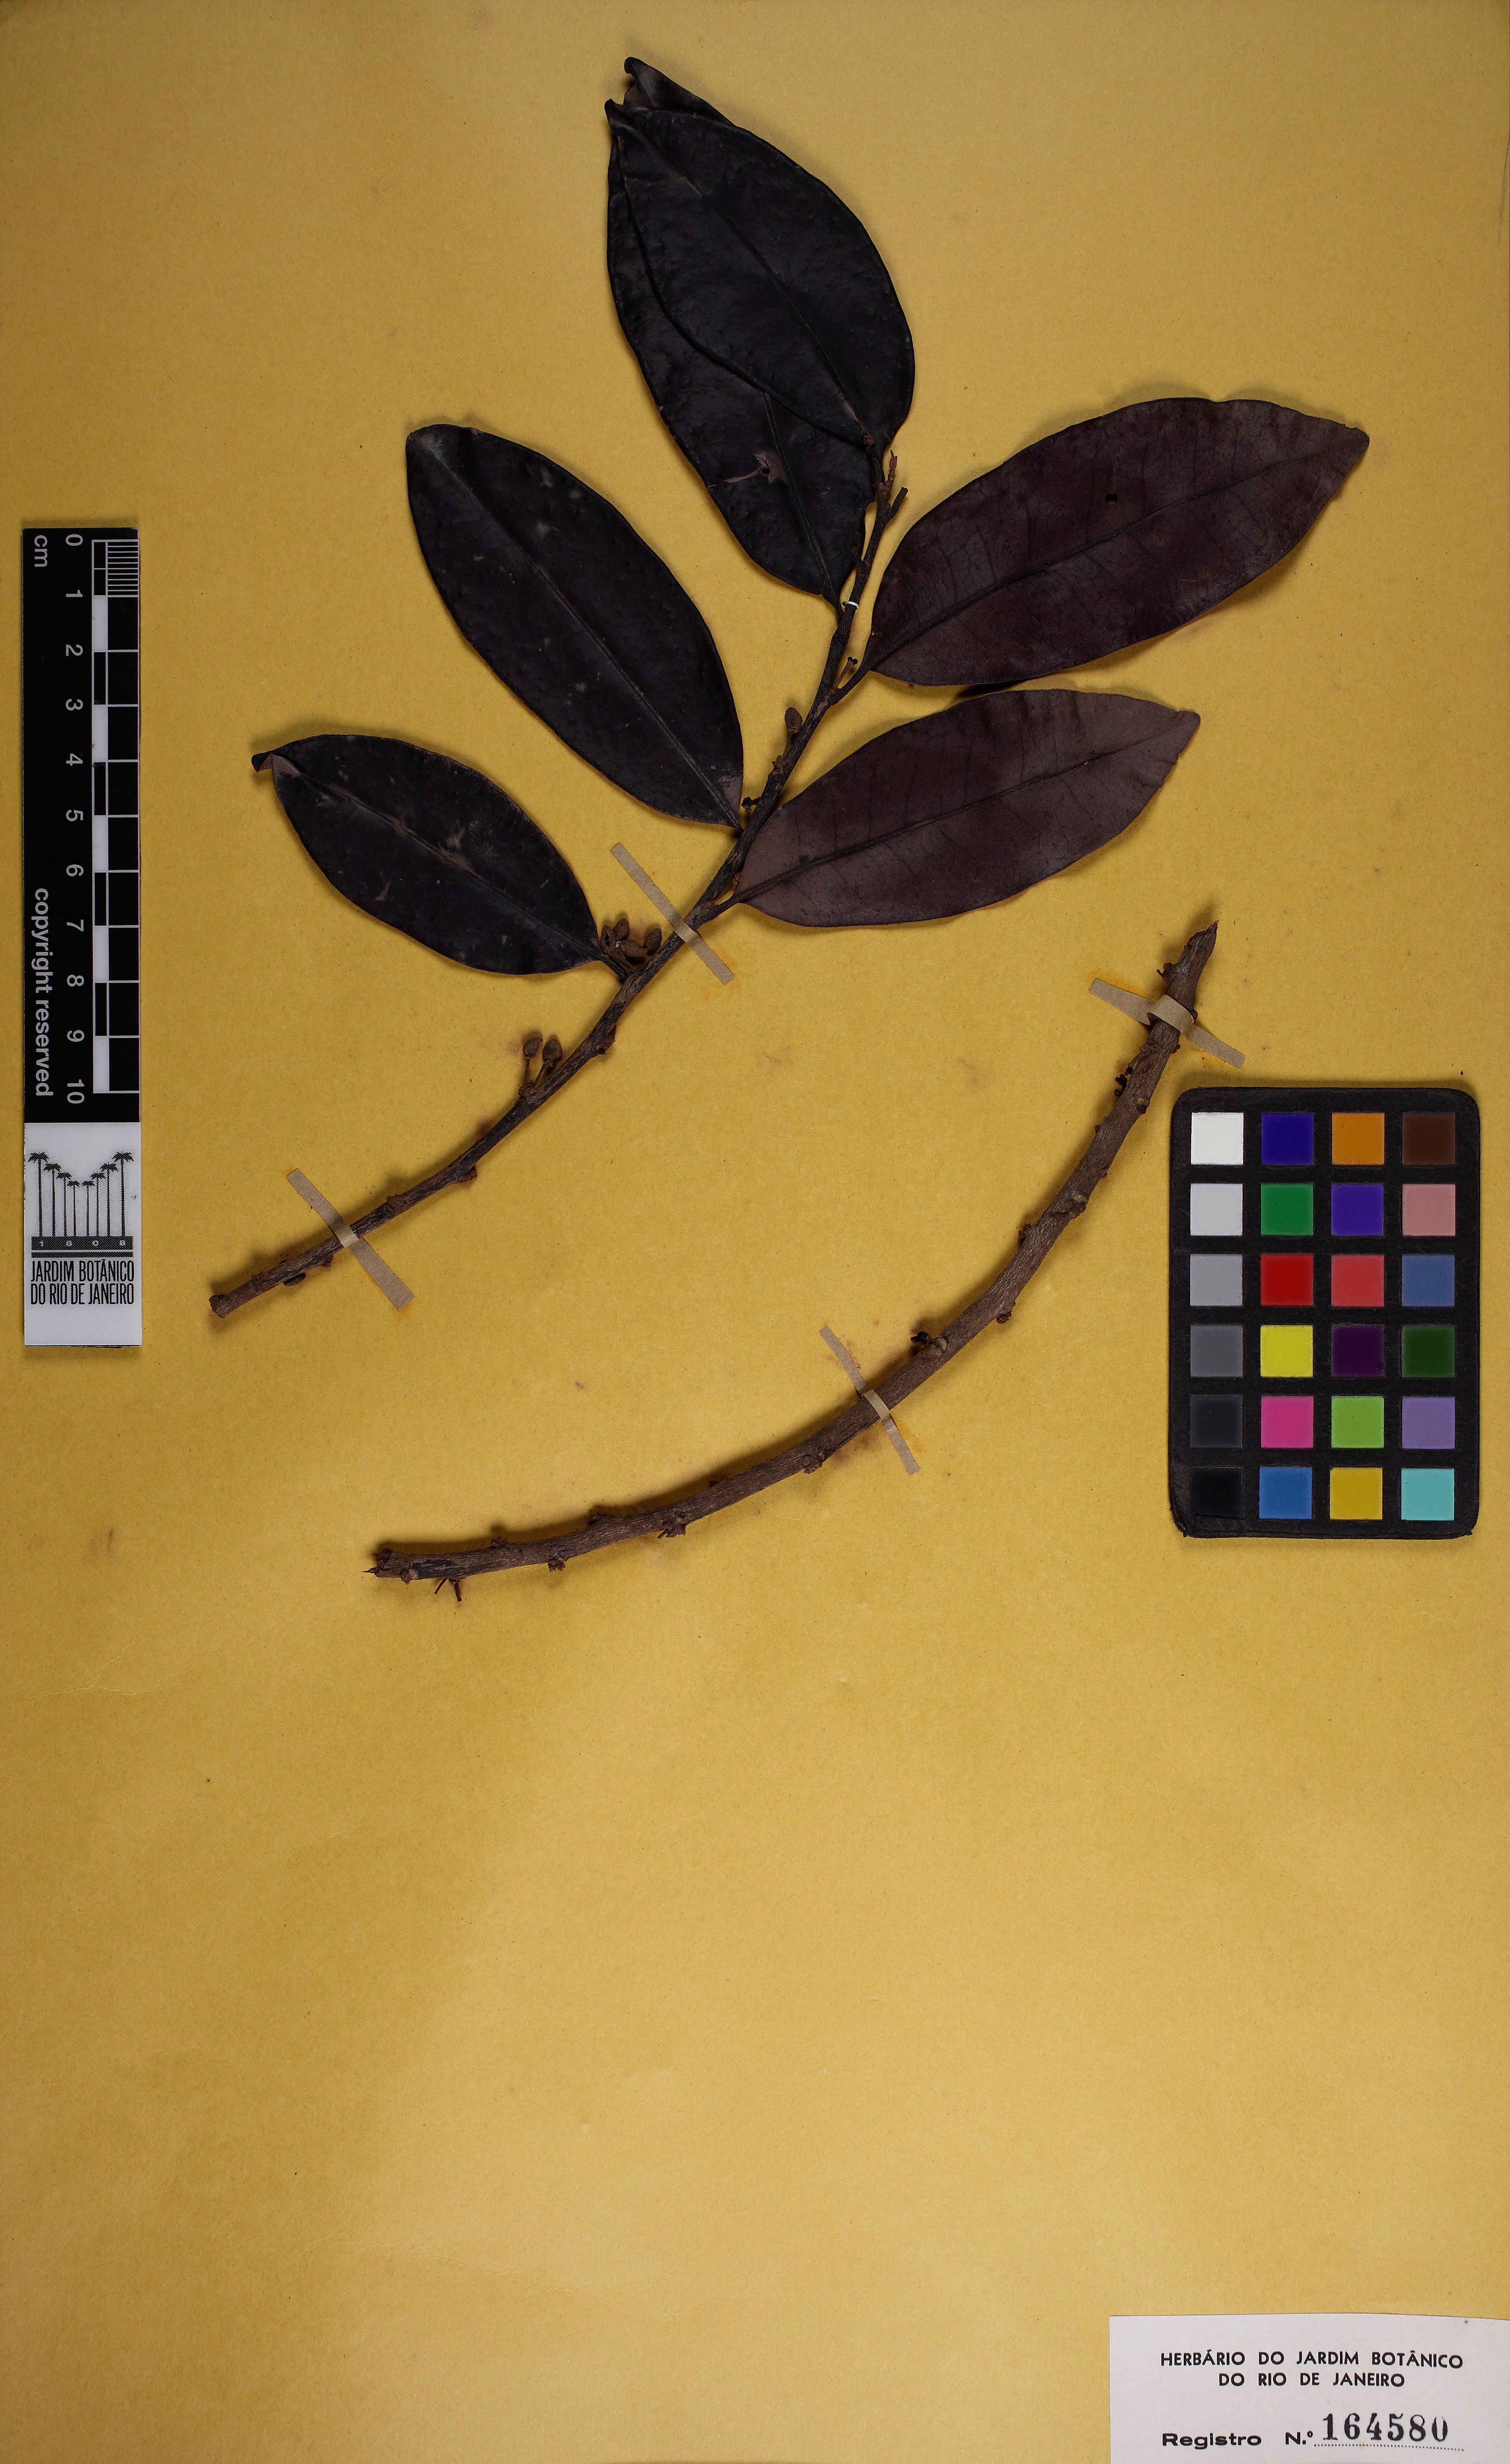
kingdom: Plantae
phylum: Tracheophyta
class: Magnoliopsida
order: Malpighiales
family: Peraceae
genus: Pera
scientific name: Pera glabrata
